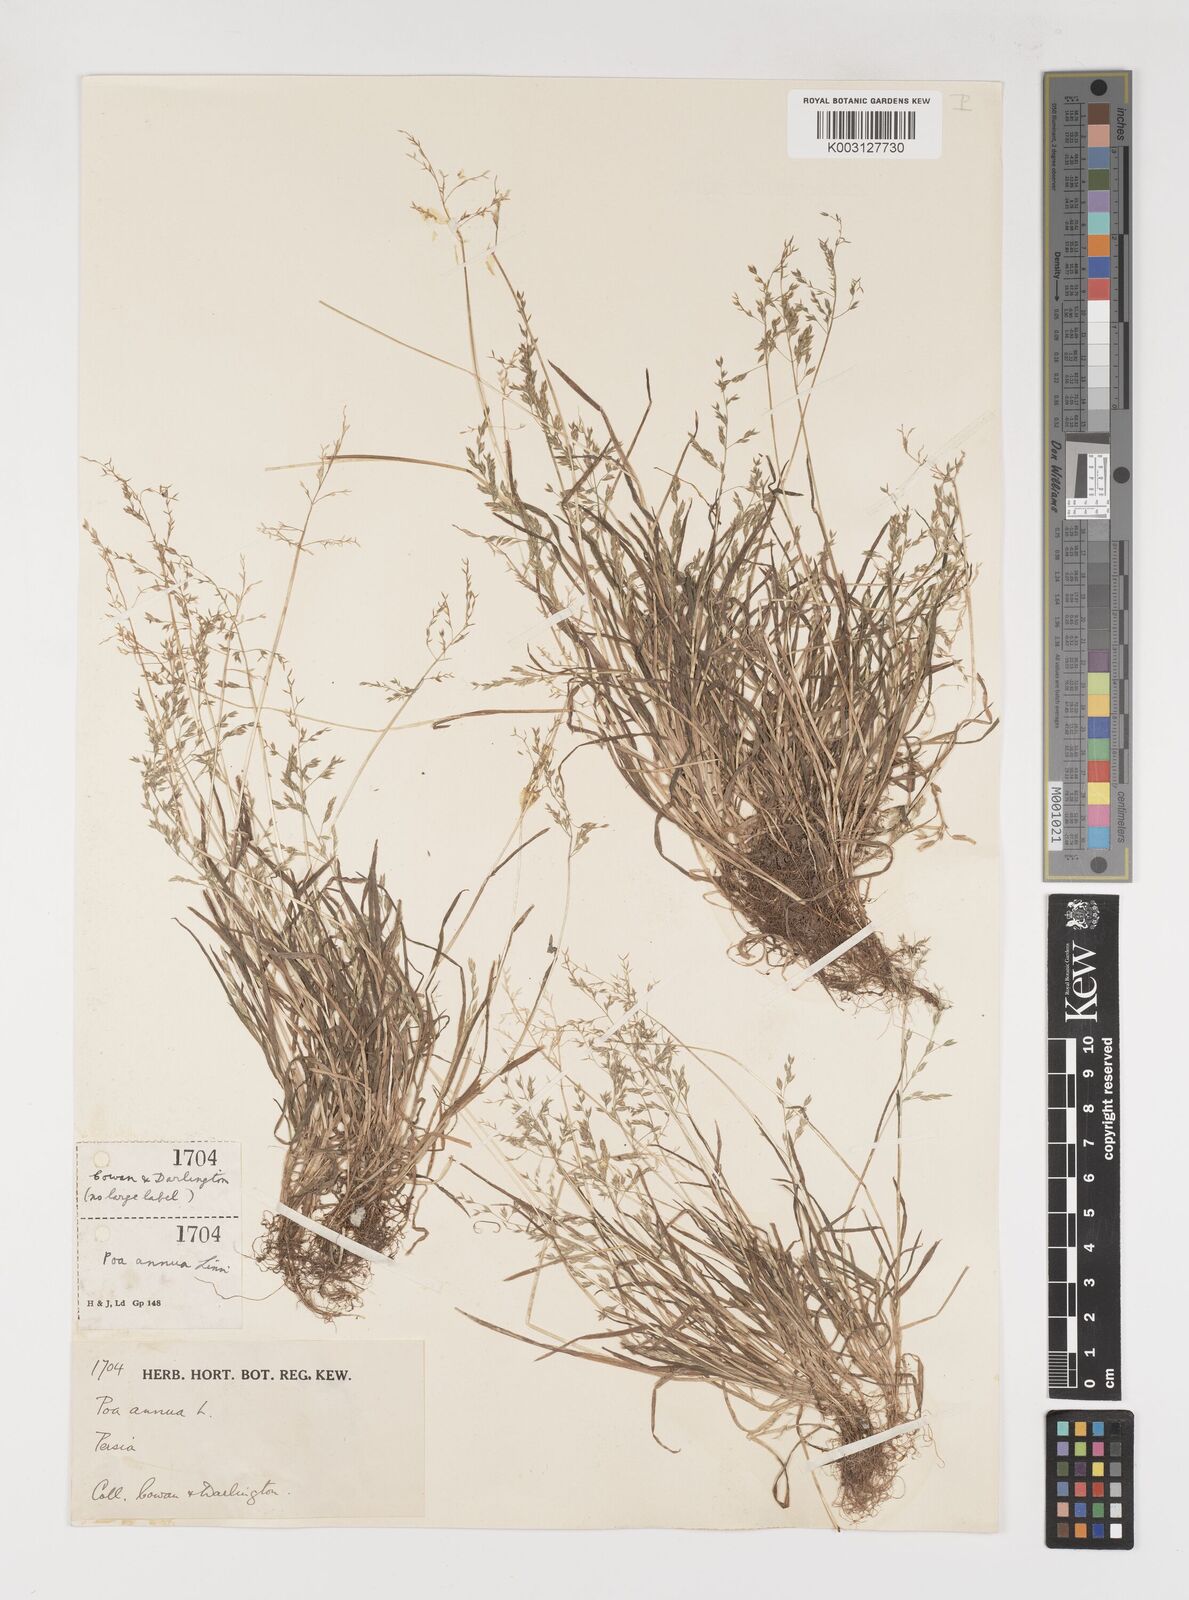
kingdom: Plantae
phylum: Tracheophyta
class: Liliopsida
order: Poales
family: Poaceae
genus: Poa
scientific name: Poa annua
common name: Annual bluegrass
